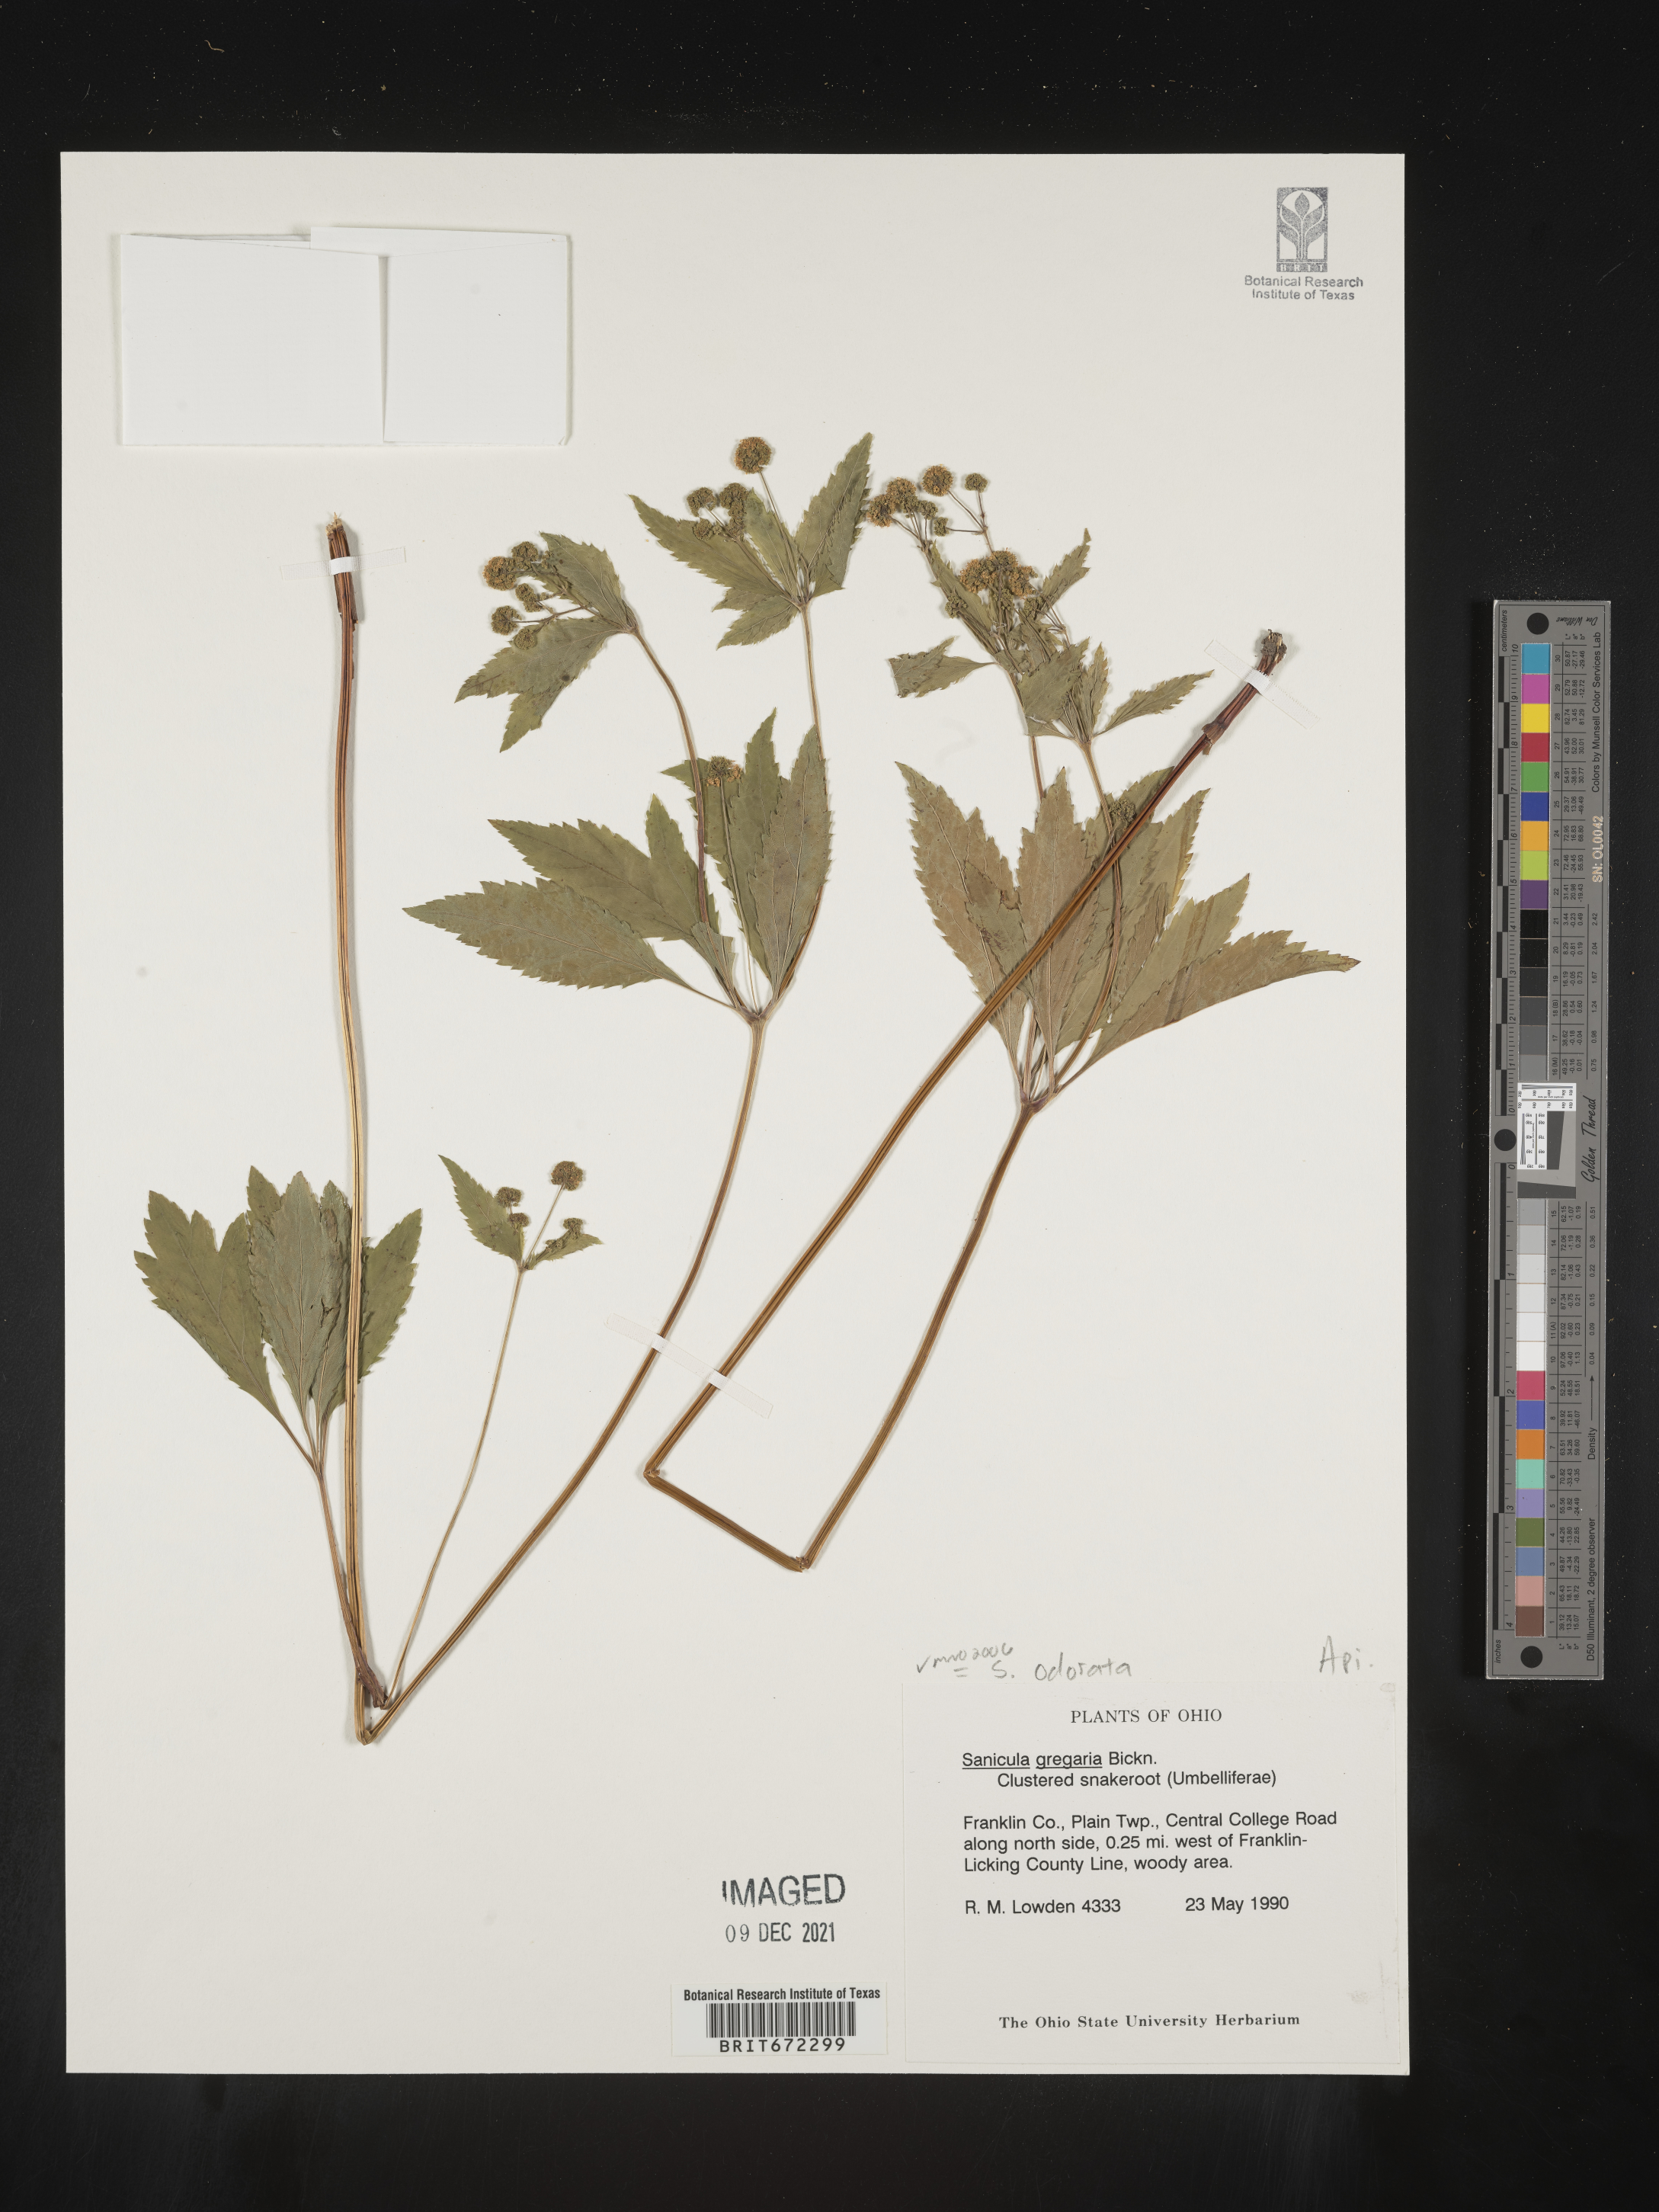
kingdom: Plantae
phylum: Tracheophyta
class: Magnoliopsida
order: Apiales
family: Apiaceae
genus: Sanicula
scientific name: Sanicula
